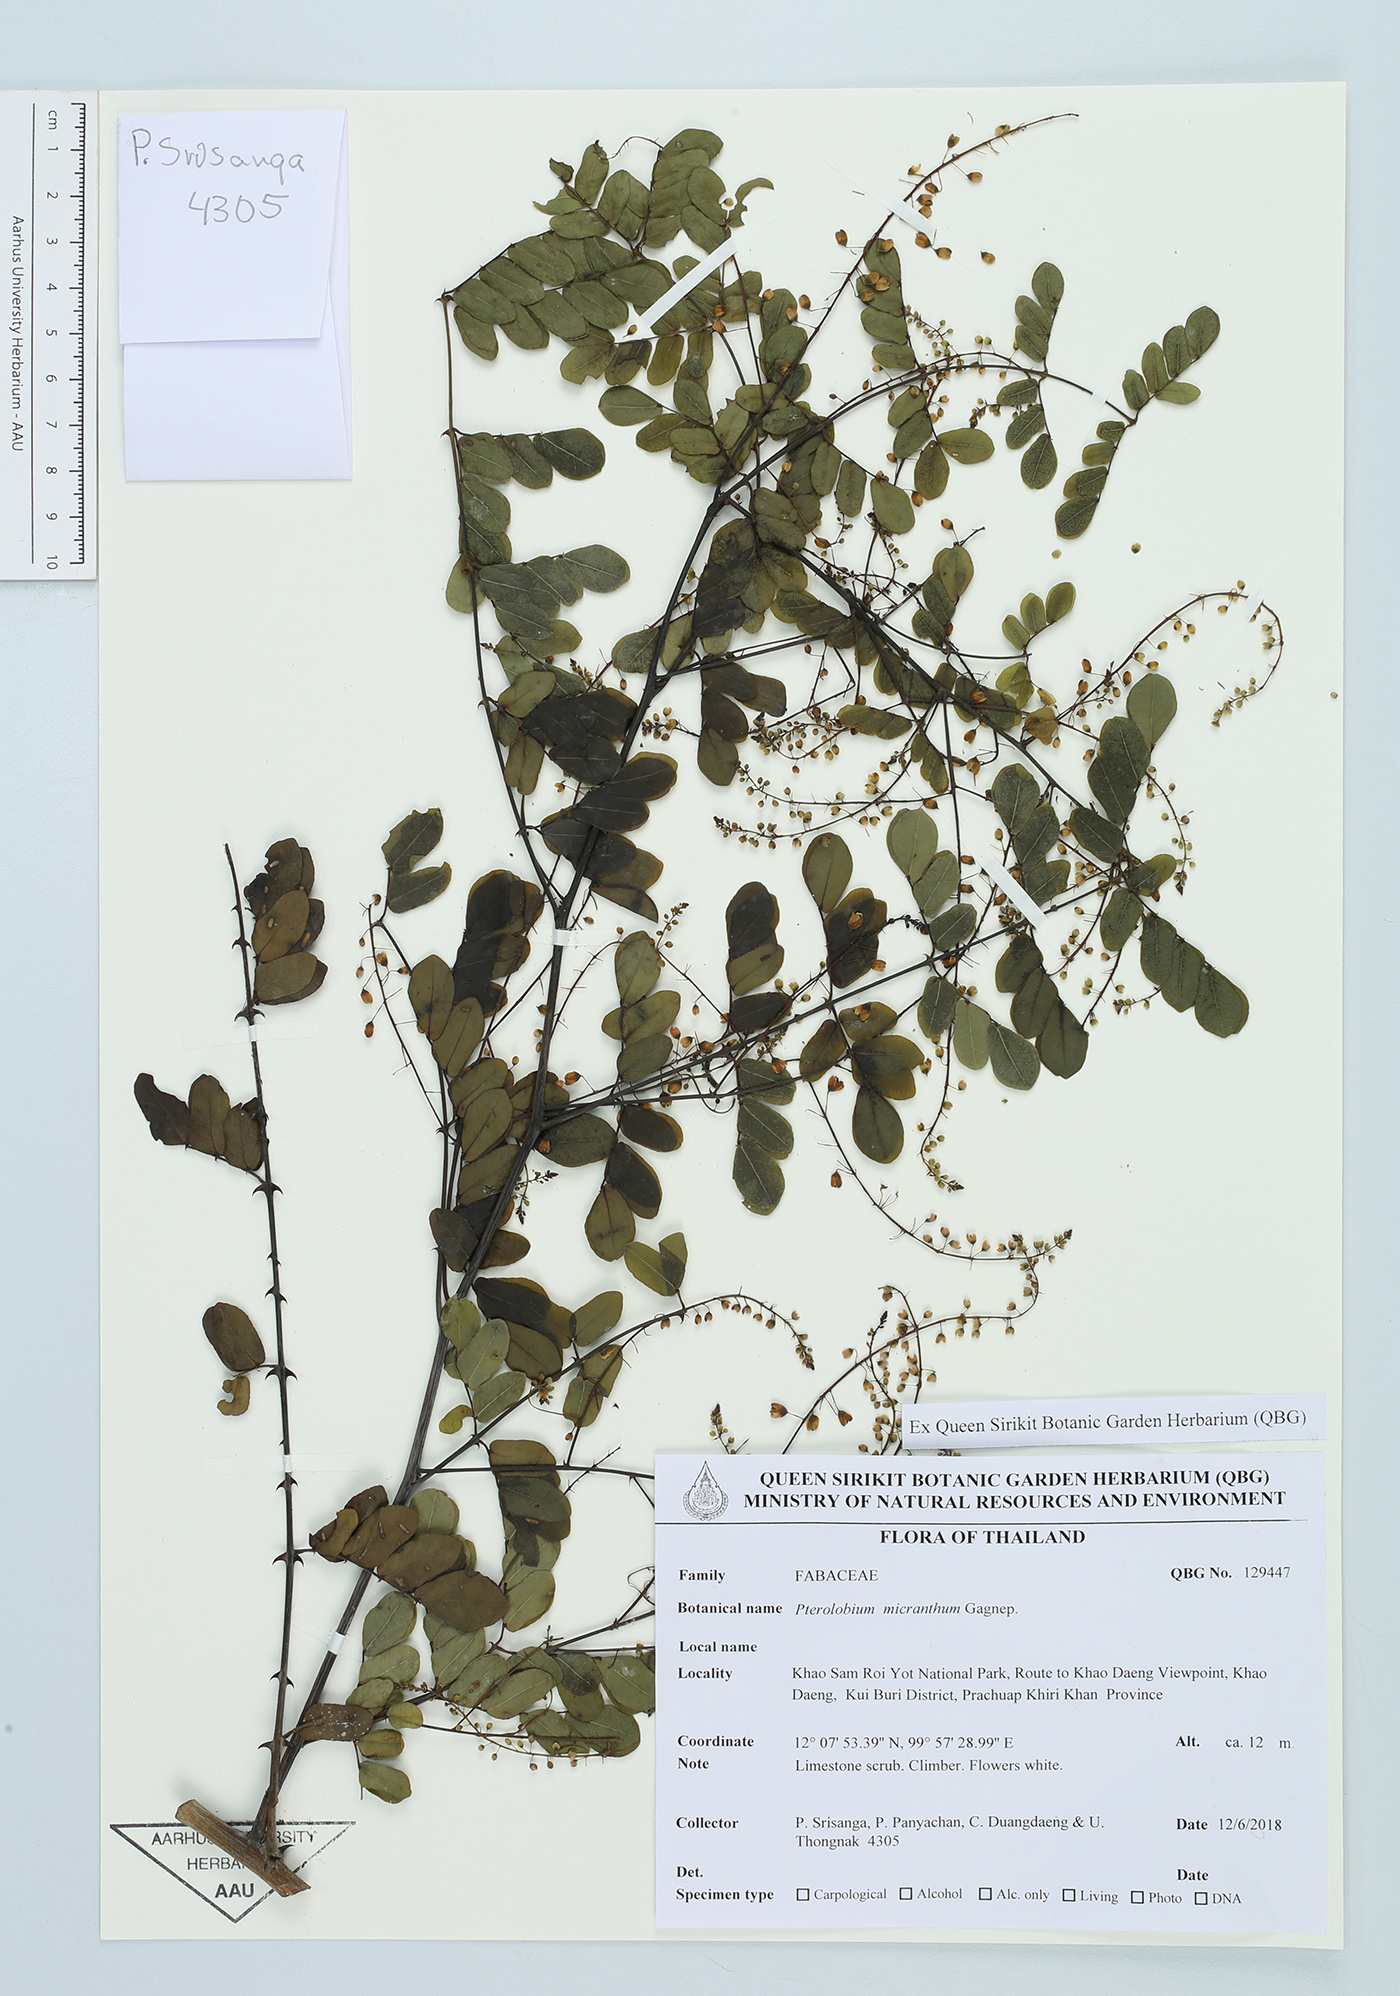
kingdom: Plantae
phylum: Tracheophyta
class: Magnoliopsida
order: Fabales
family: Fabaceae
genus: Pterolobium
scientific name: Pterolobium micranthum
